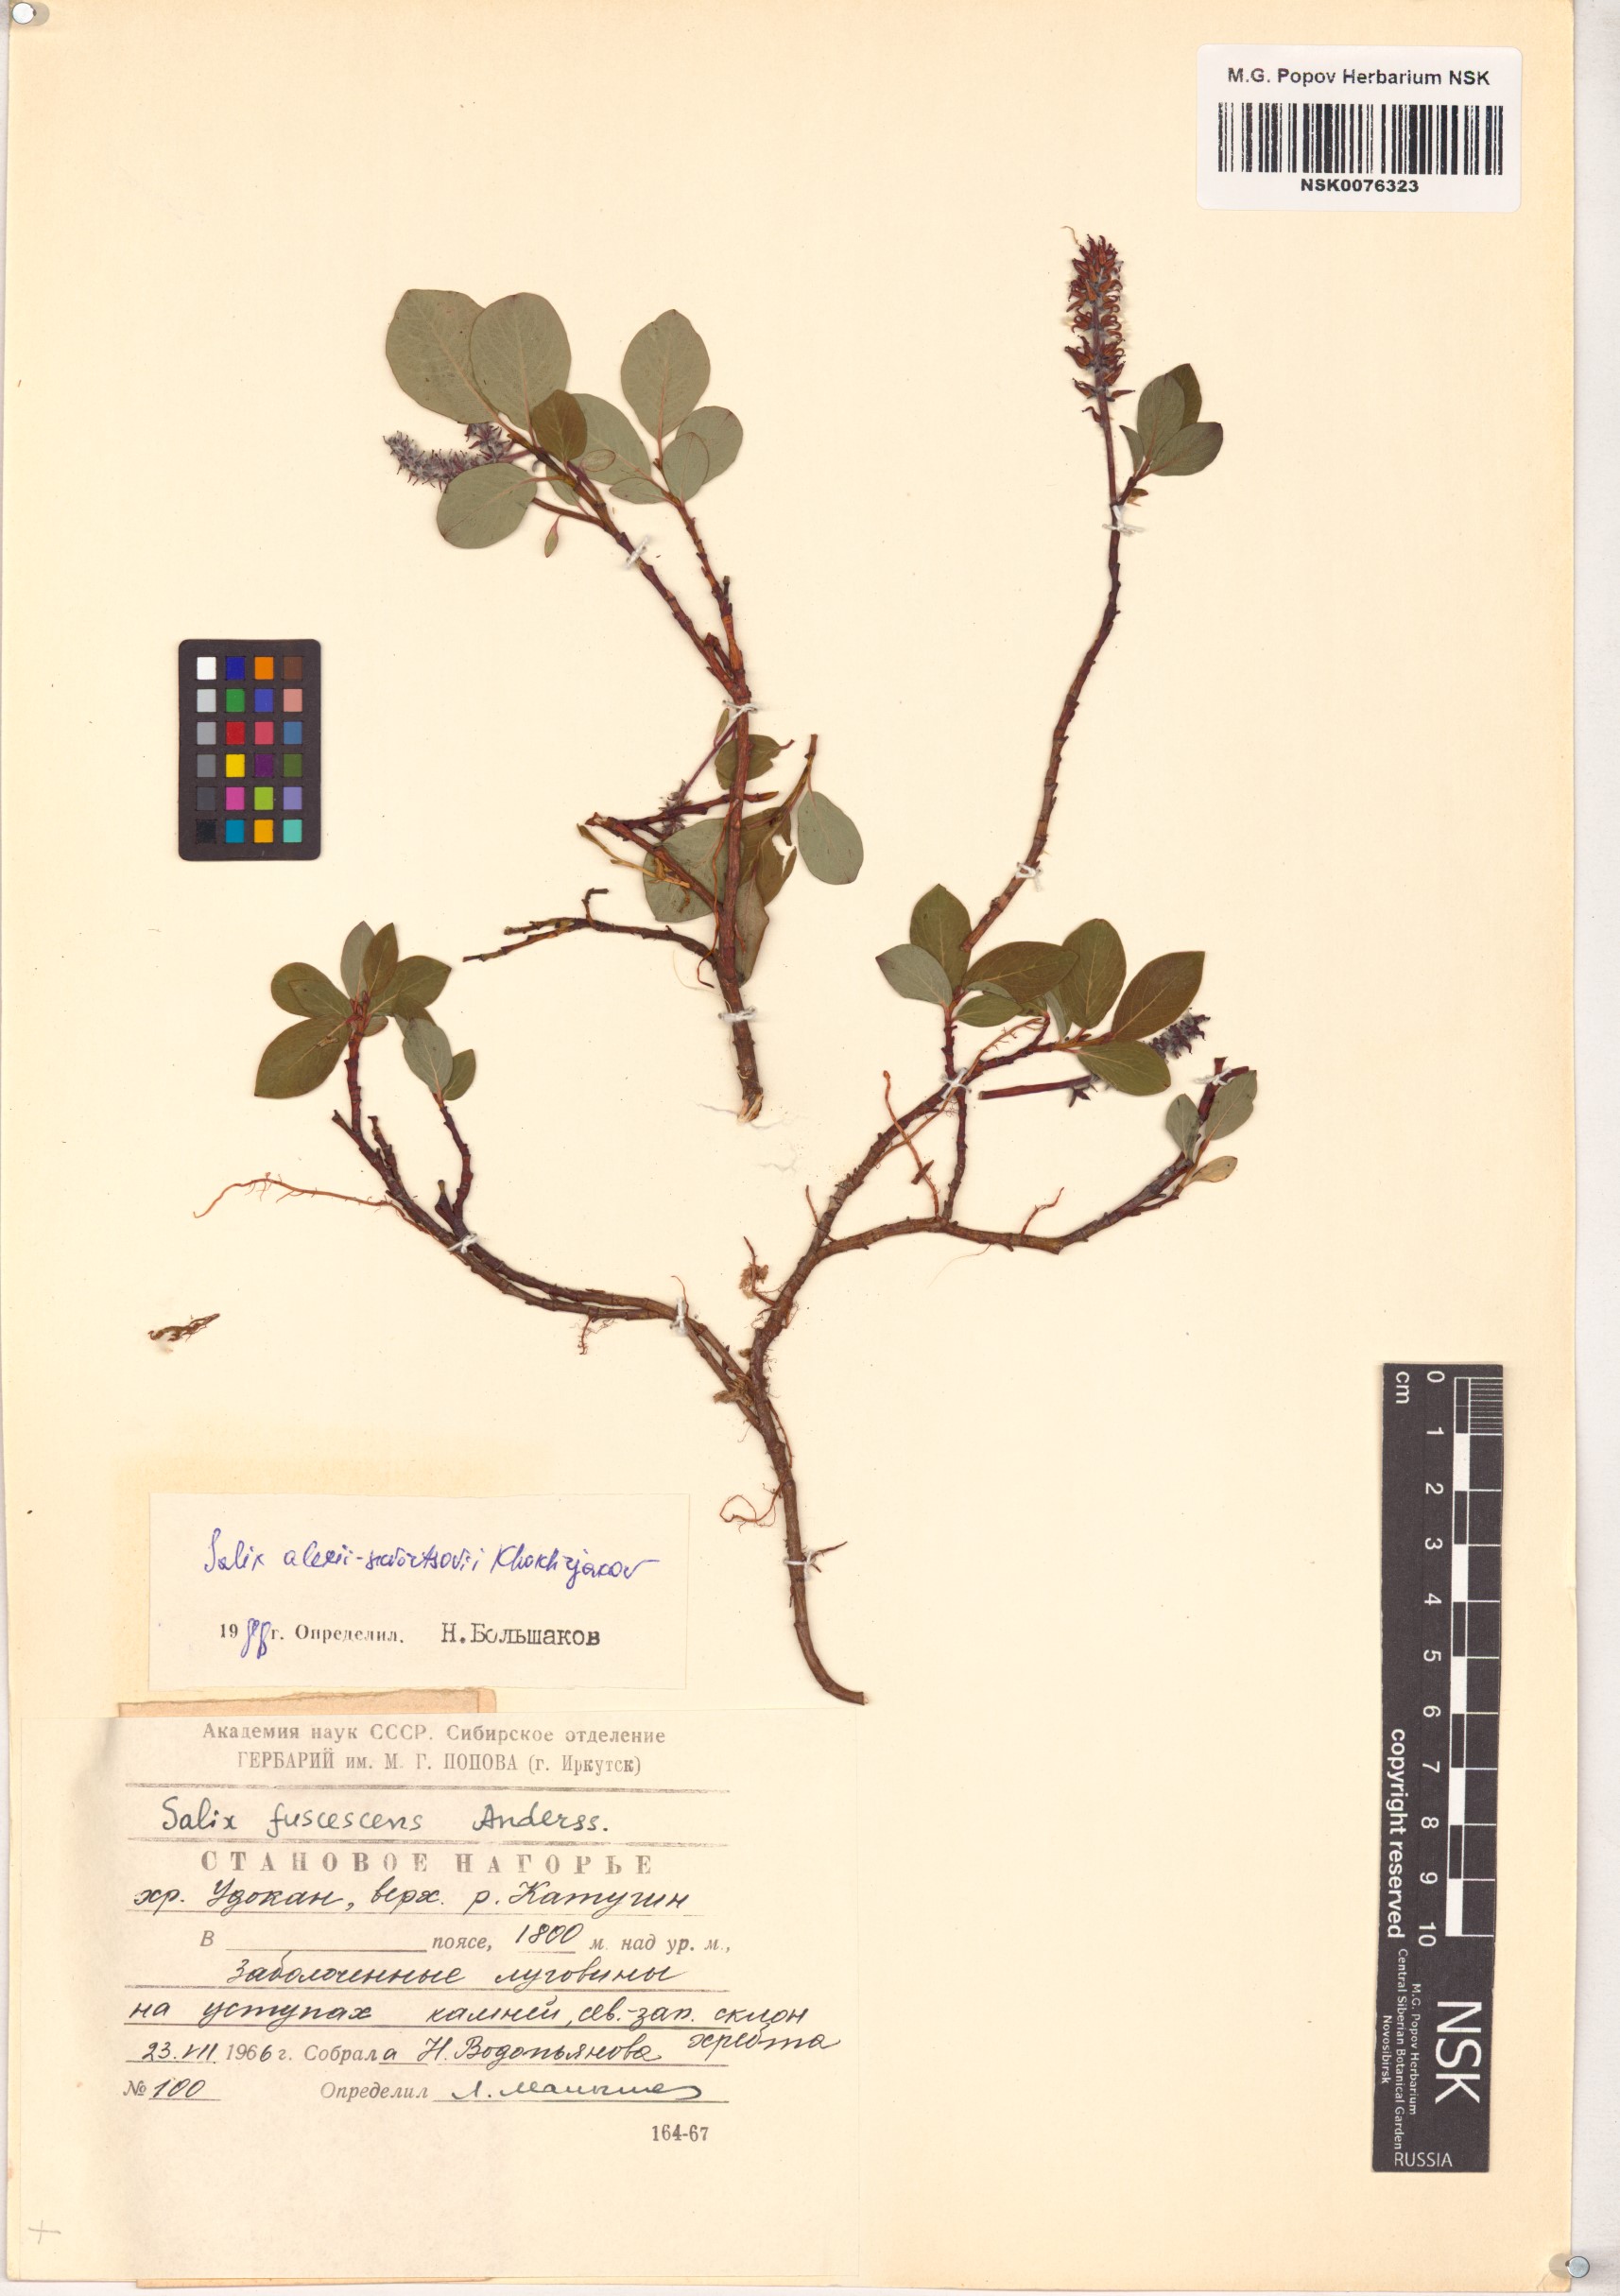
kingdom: Plantae
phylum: Tracheophyta
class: Magnoliopsida
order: Malpighiales
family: Salicaceae
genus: Salix
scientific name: Salix alexii-skvortzovii
